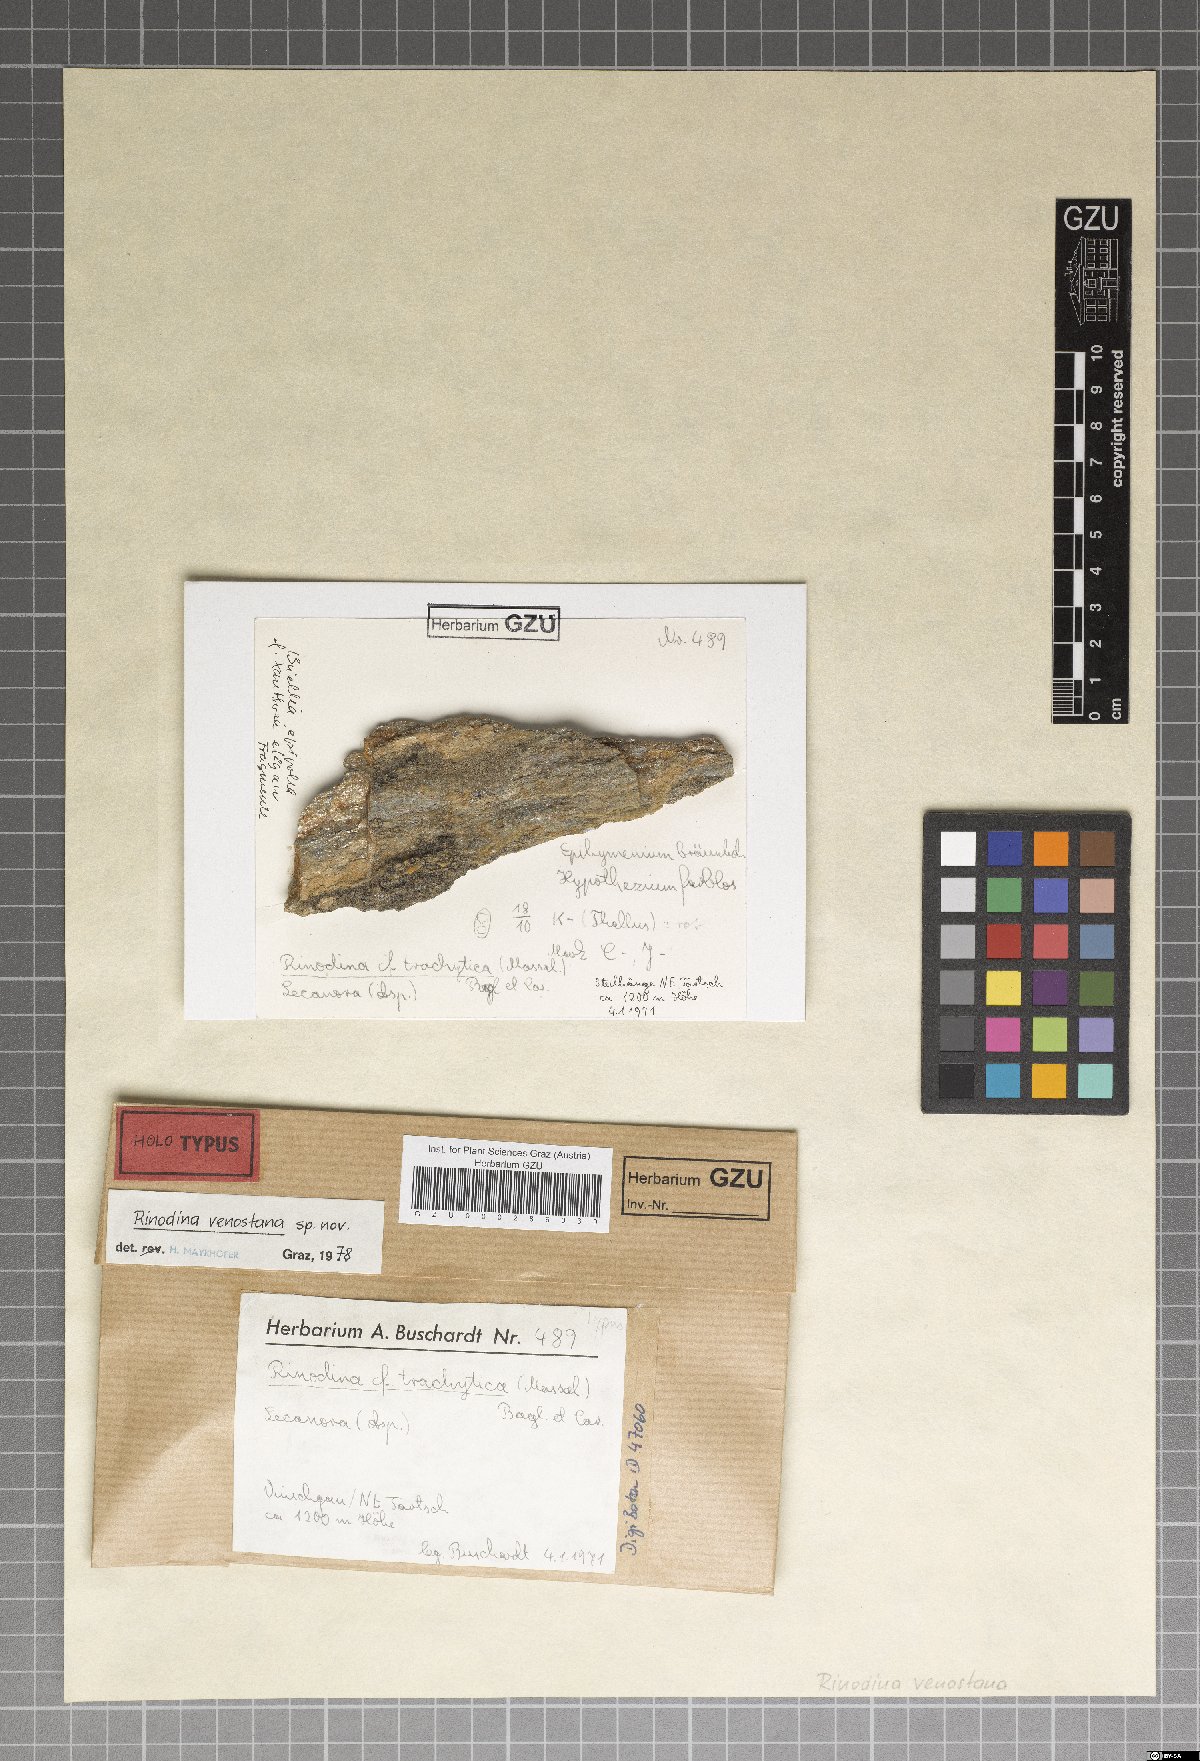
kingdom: Fungi
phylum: Ascomycota
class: Lecanoromycetes
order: Caliciales
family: Physciaceae
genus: Rinodina
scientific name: Rinodina venostana
